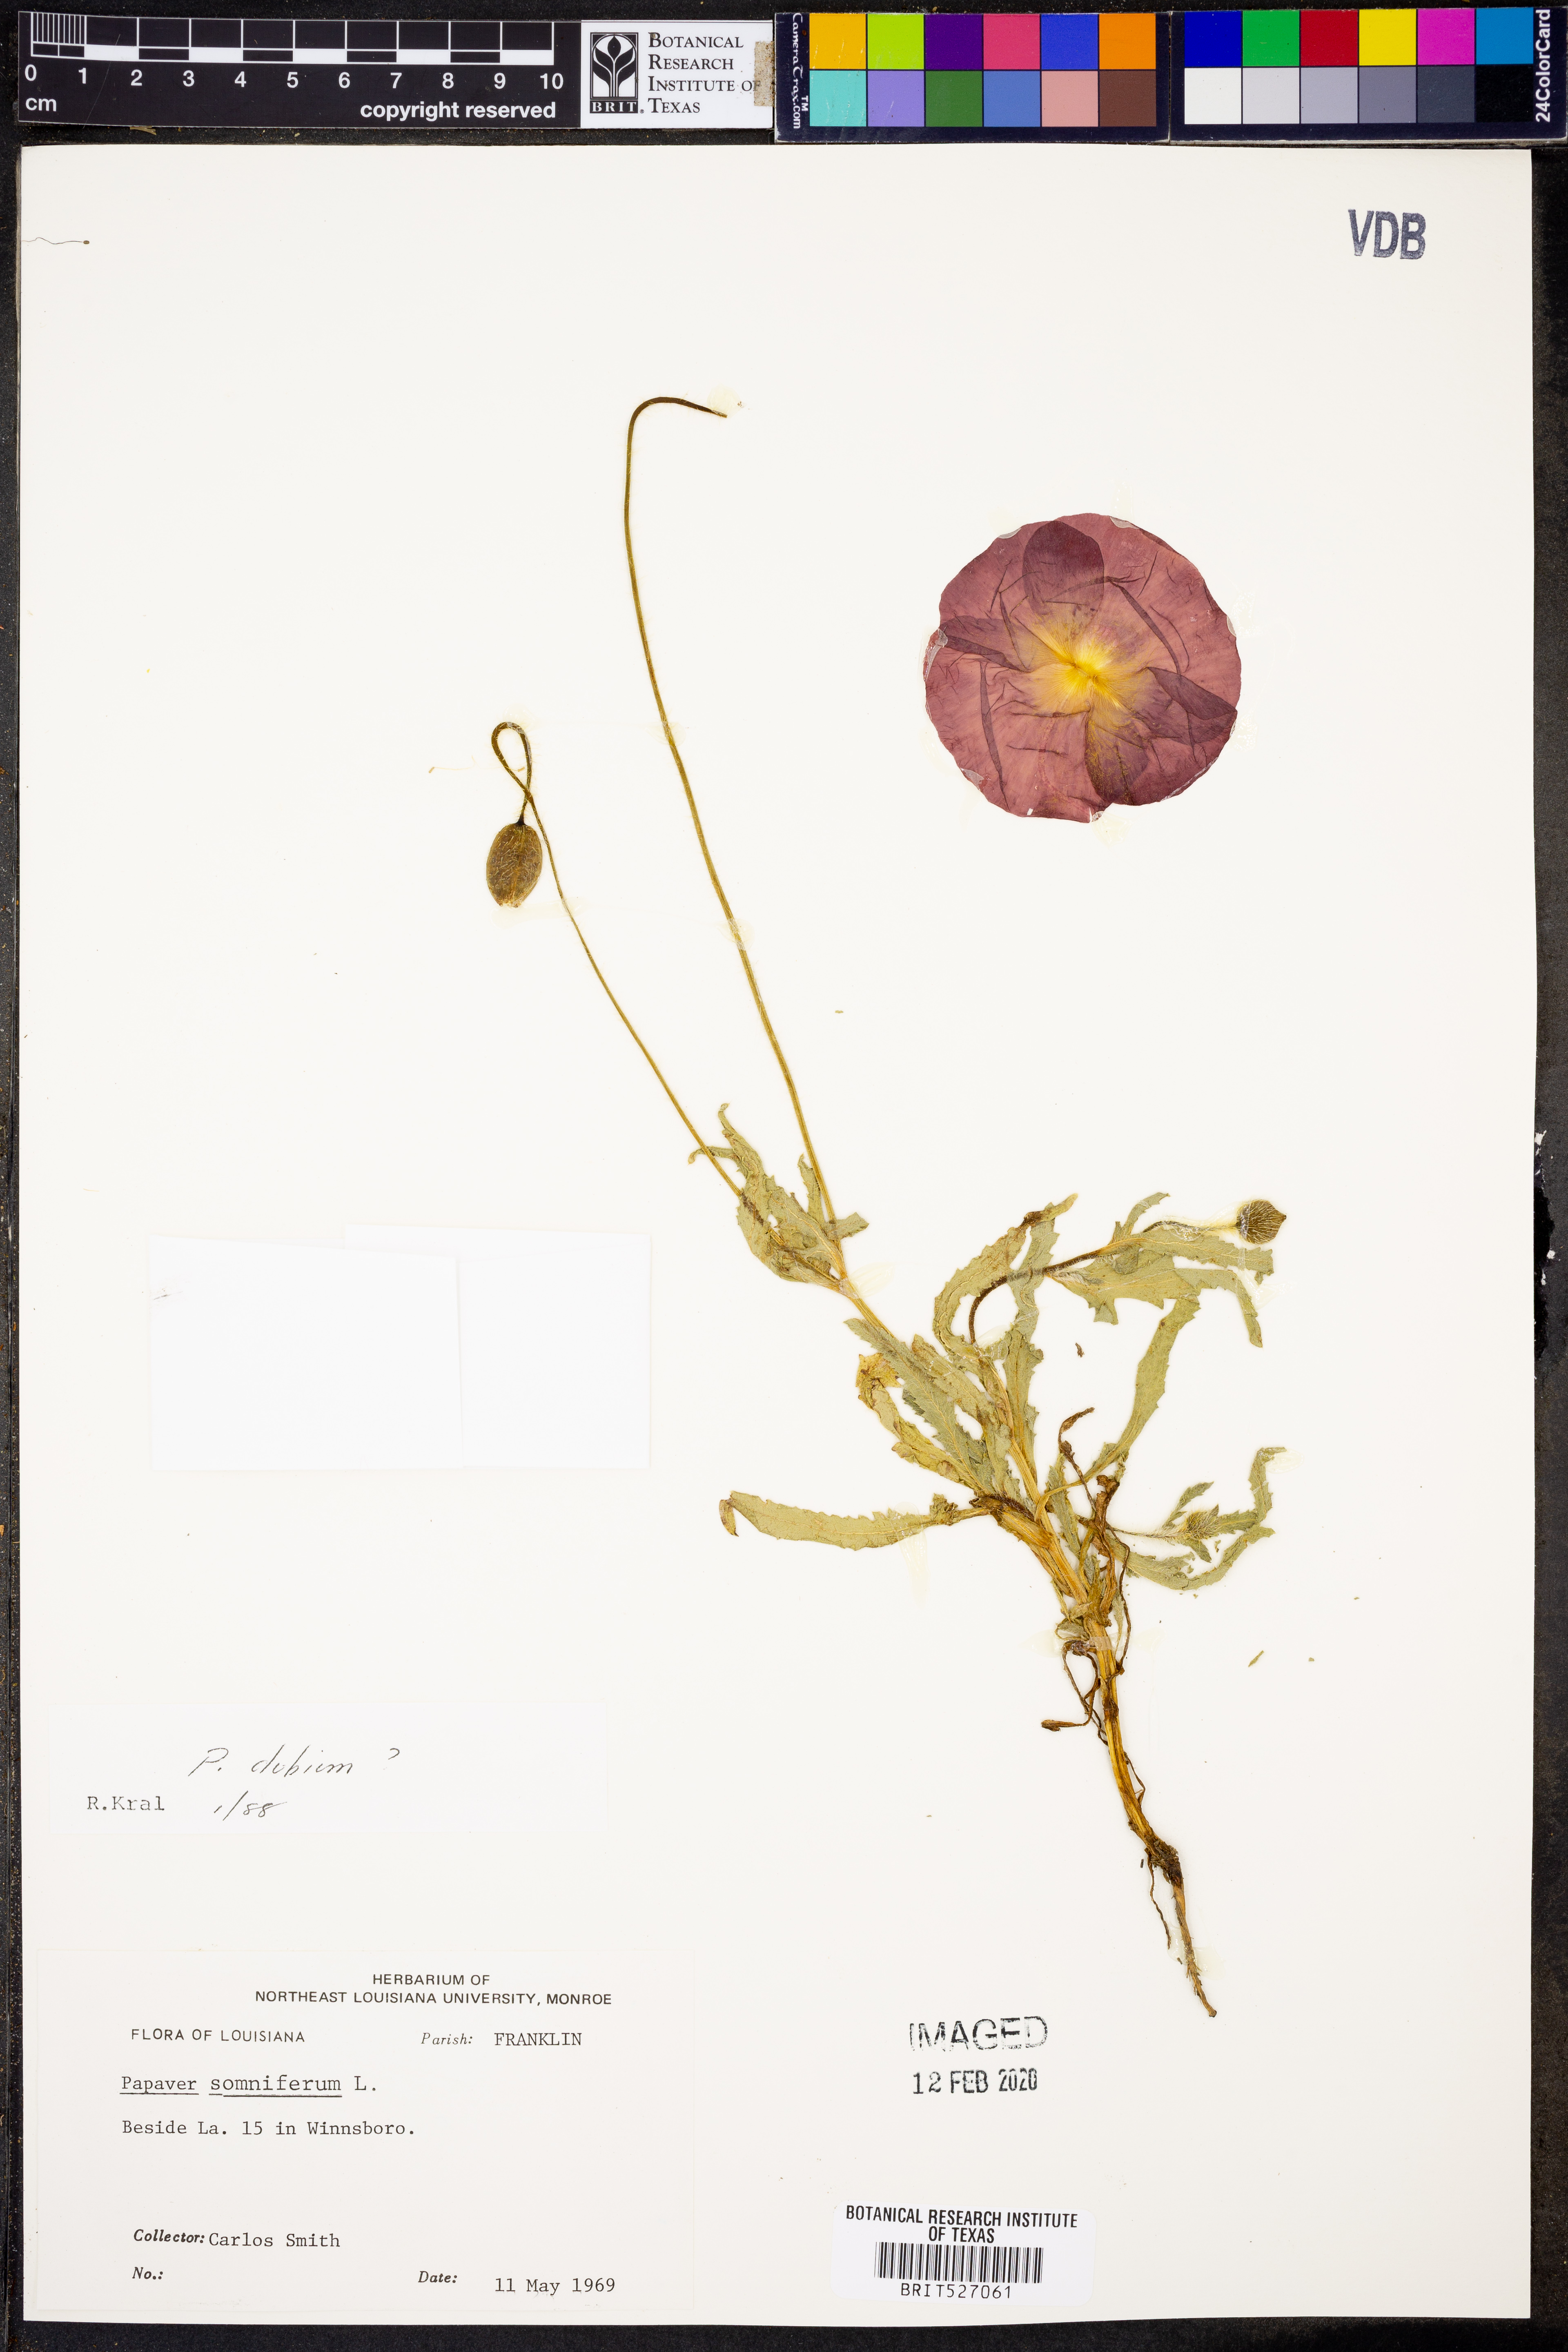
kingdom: Plantae
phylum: Tracheophyta
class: Magnoliopsida
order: Ranunculales
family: Papaveraceae
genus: Papaver
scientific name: Papaver somniferum
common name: Opium poppy
